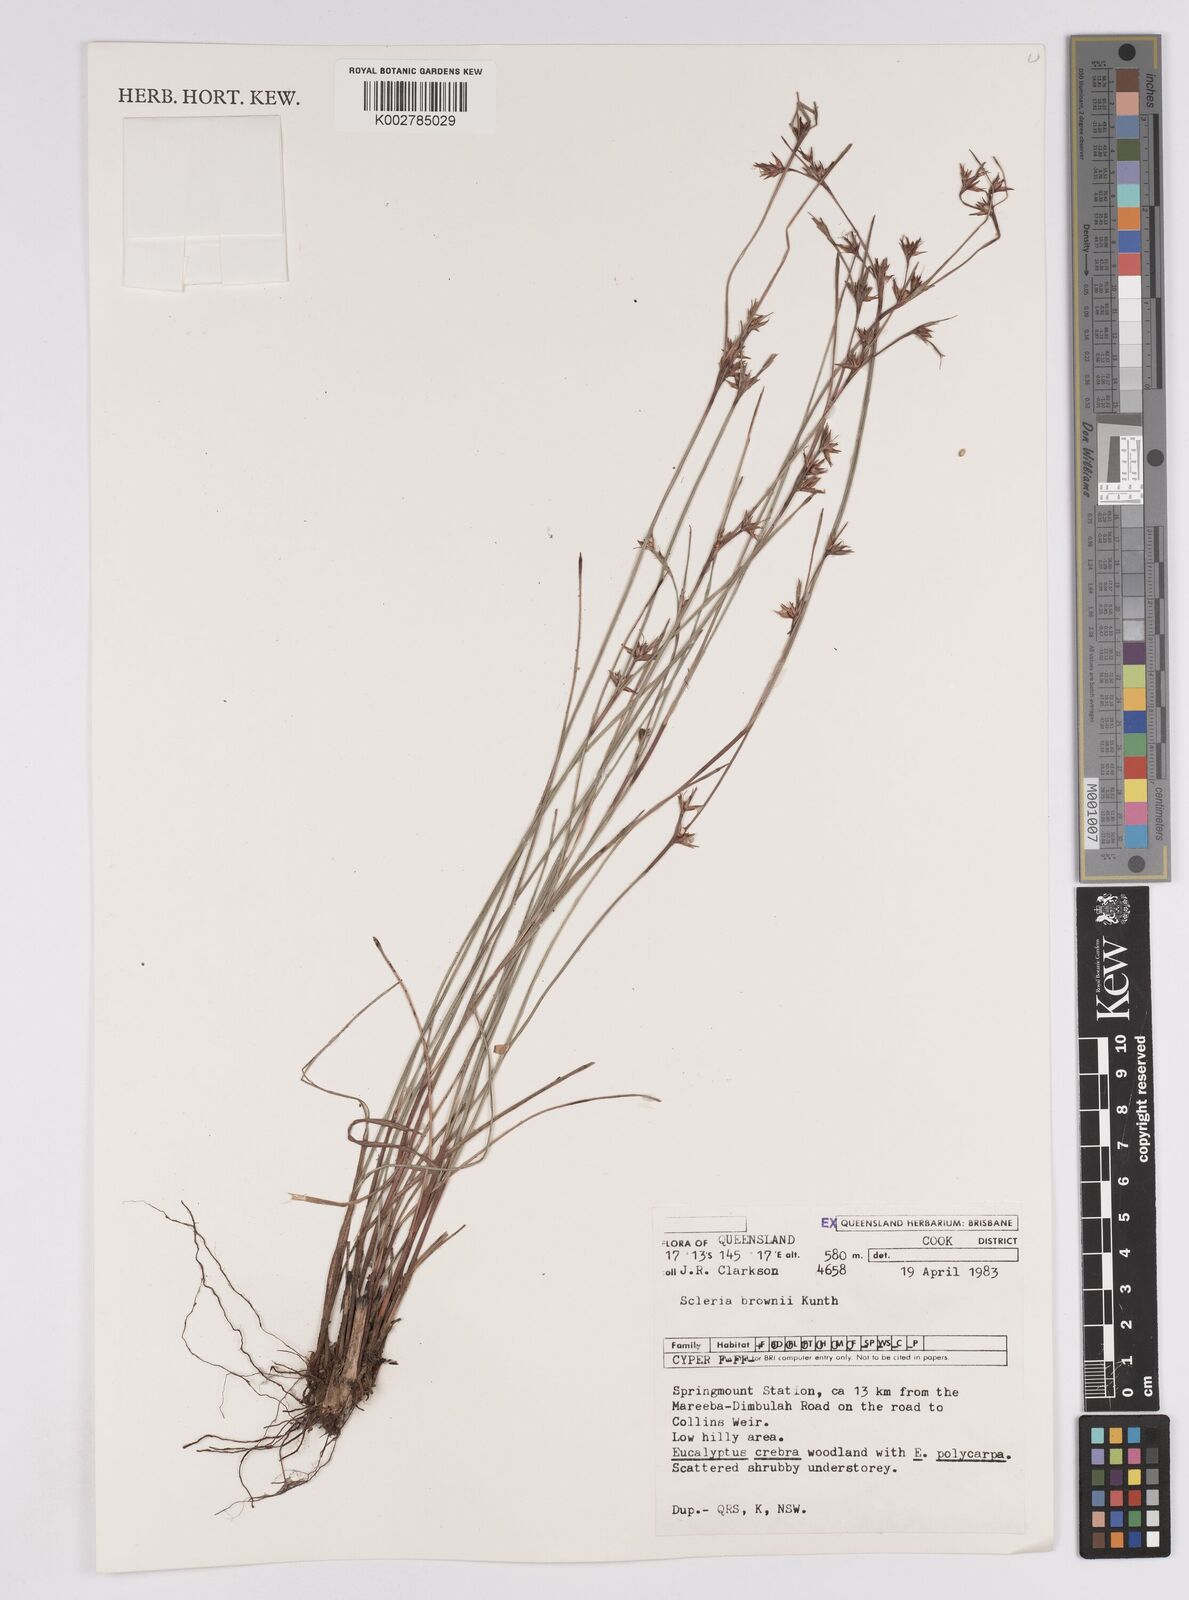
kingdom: Plantae
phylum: Tracheophyta
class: Liliopsida
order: Poales
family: Cyperaceae
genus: Scleria
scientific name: Scleria brownii
